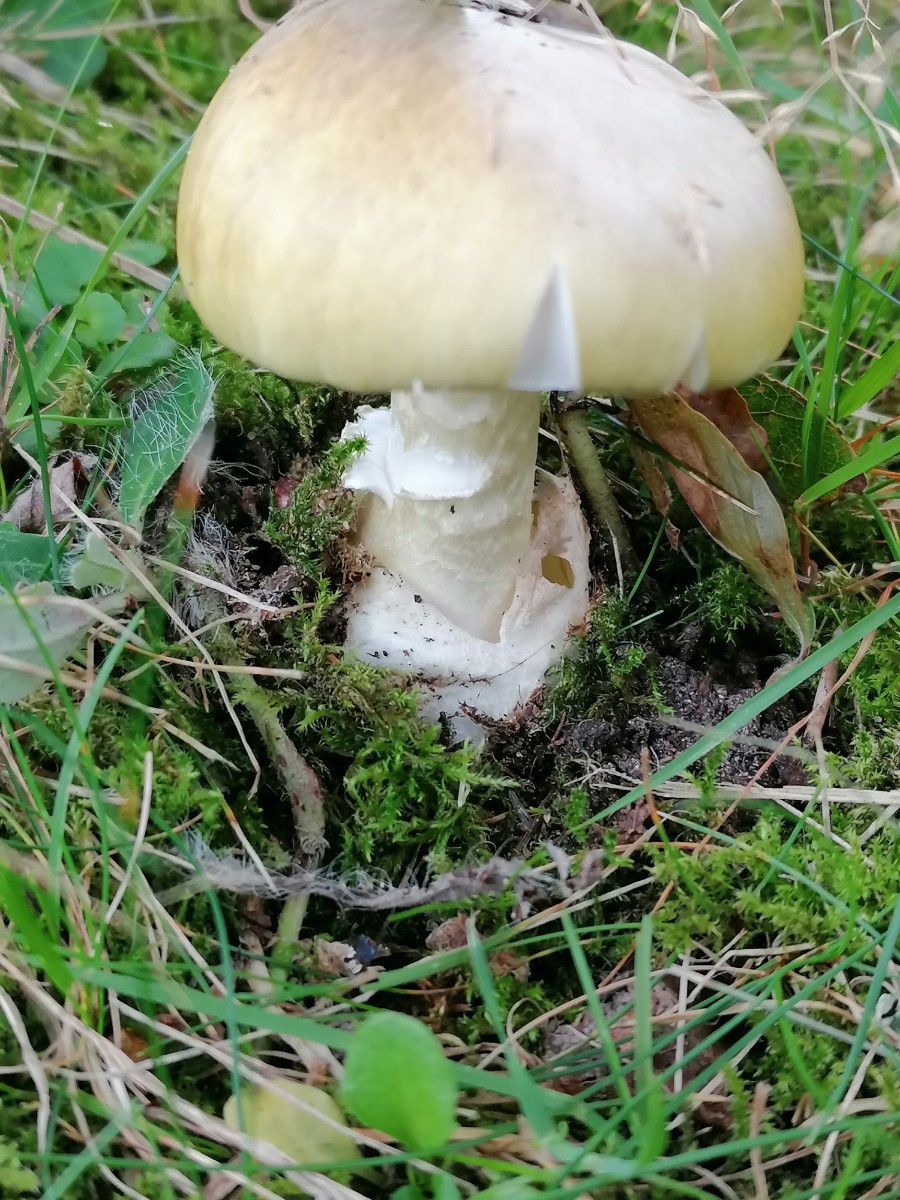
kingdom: Fungi
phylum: Basidiomycota
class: Agaricomycetes
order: Agaricales
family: Amanitaceae
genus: Amanita
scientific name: Amanita phalloides
